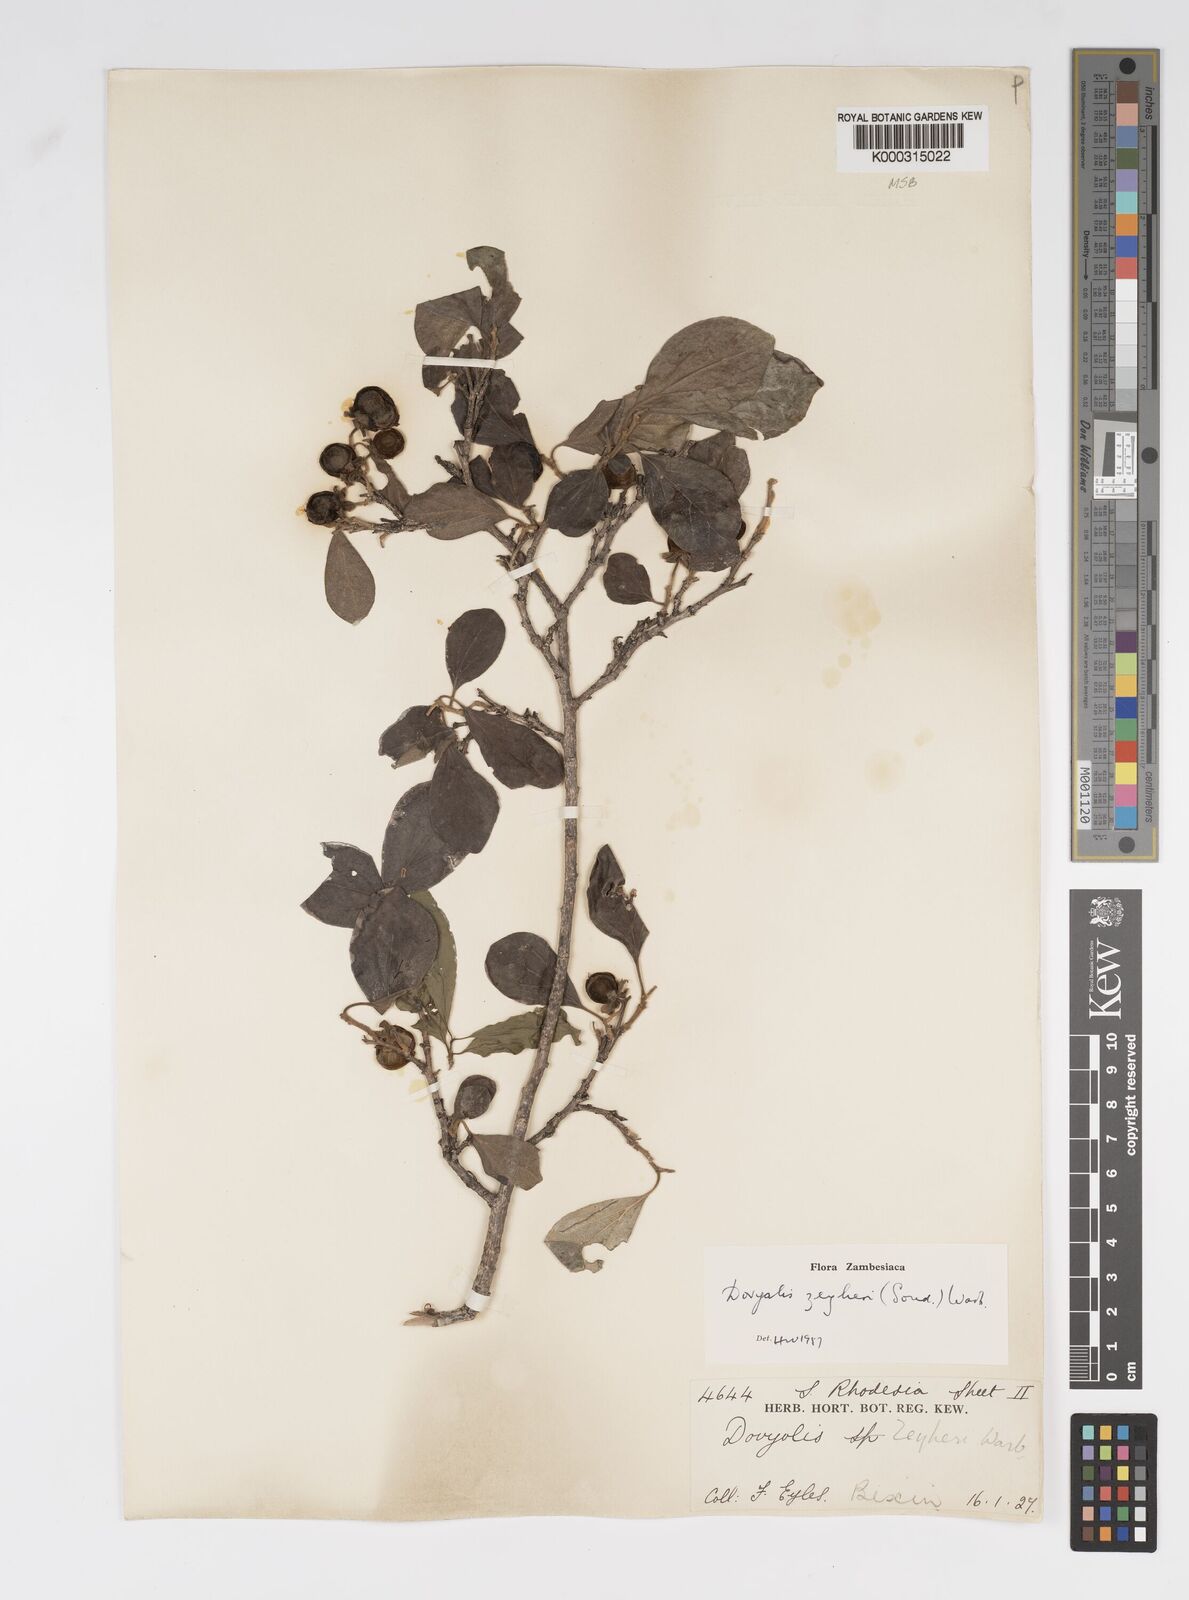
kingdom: Plantae
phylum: Tracheophyta
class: Magnoliopsida
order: Malpighiales
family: Salicaceae
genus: Dovyalis
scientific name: Dovyalis zeyheri
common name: Apricot sourberry
